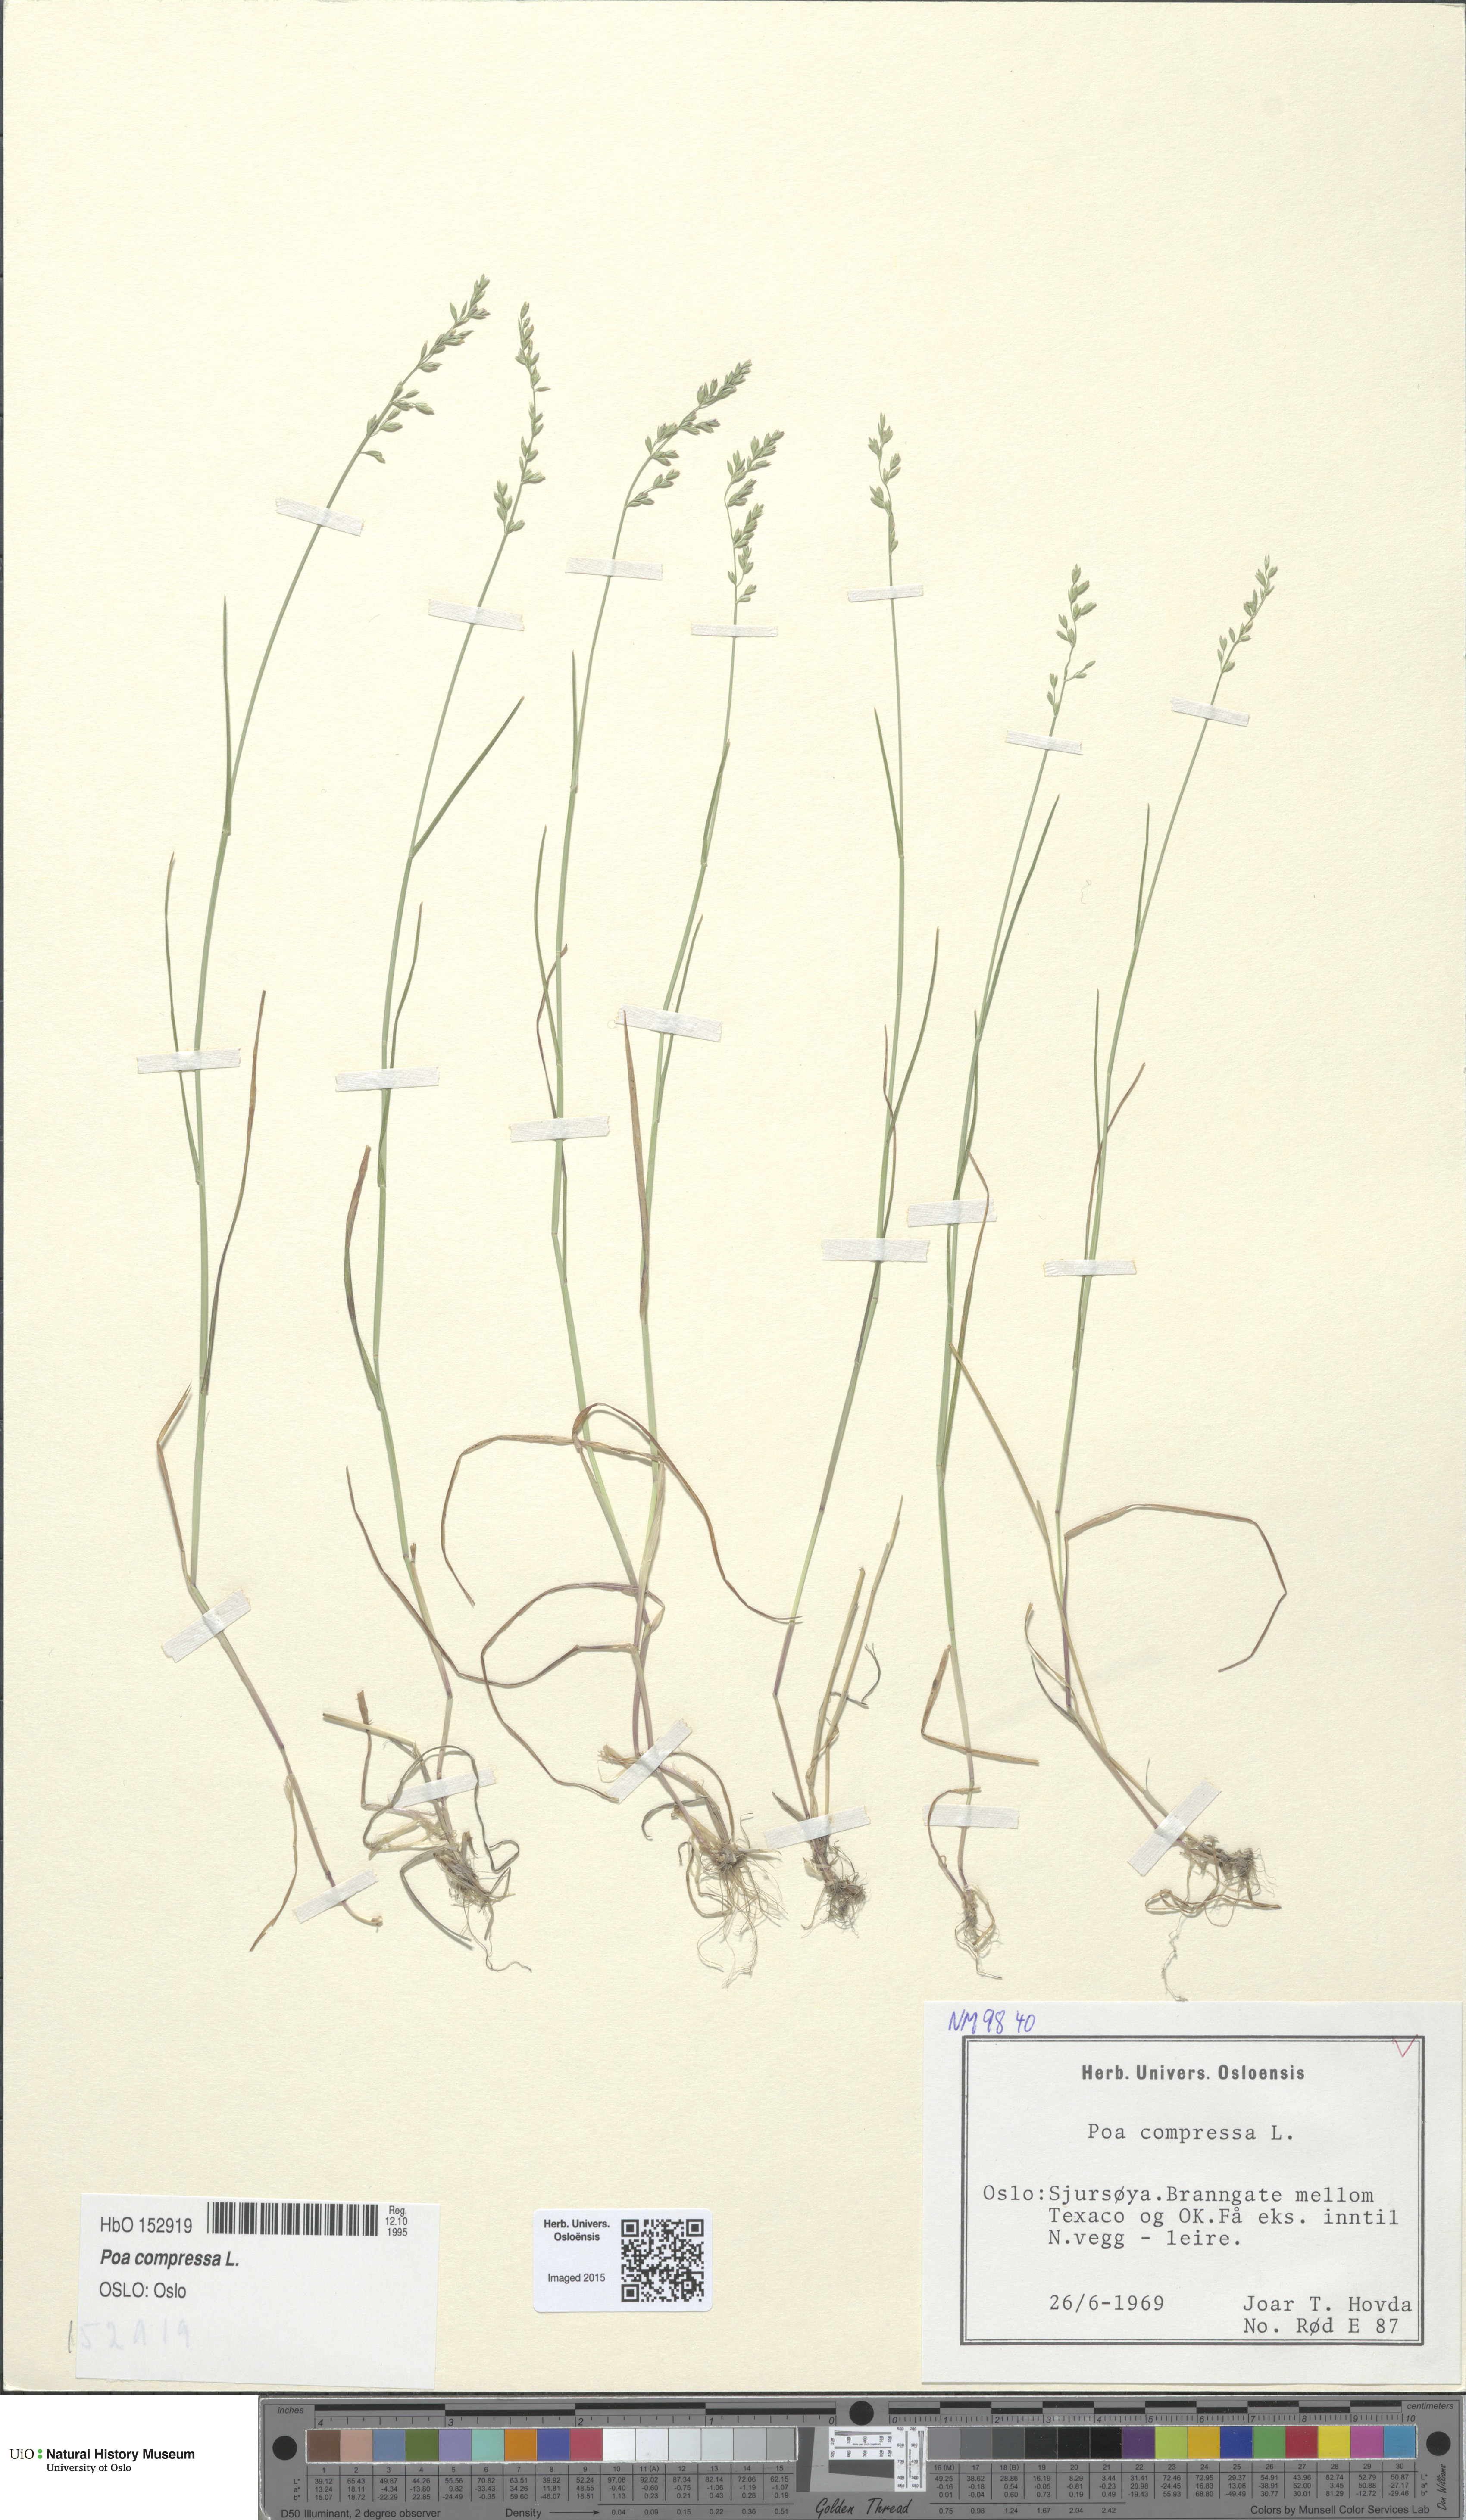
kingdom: Plantae
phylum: Tracheophyta
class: Liliopsida
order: Poales
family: Poaceae
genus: Poa
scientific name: Poa compressa
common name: Canada bluegrass
